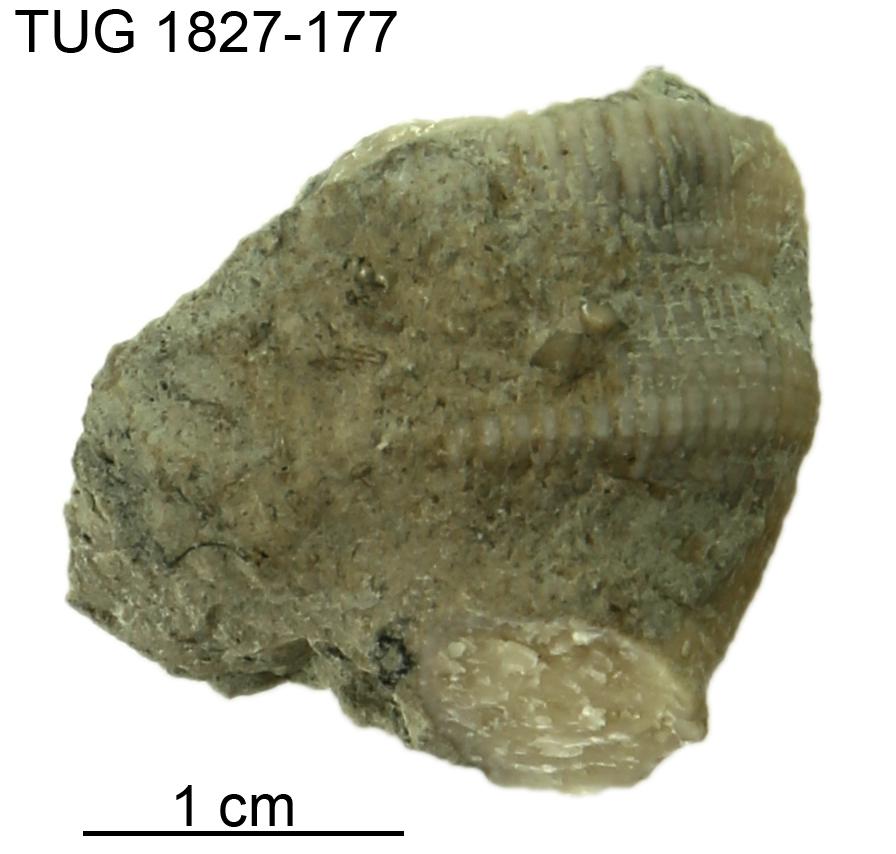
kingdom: Animalia
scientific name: Animalia
